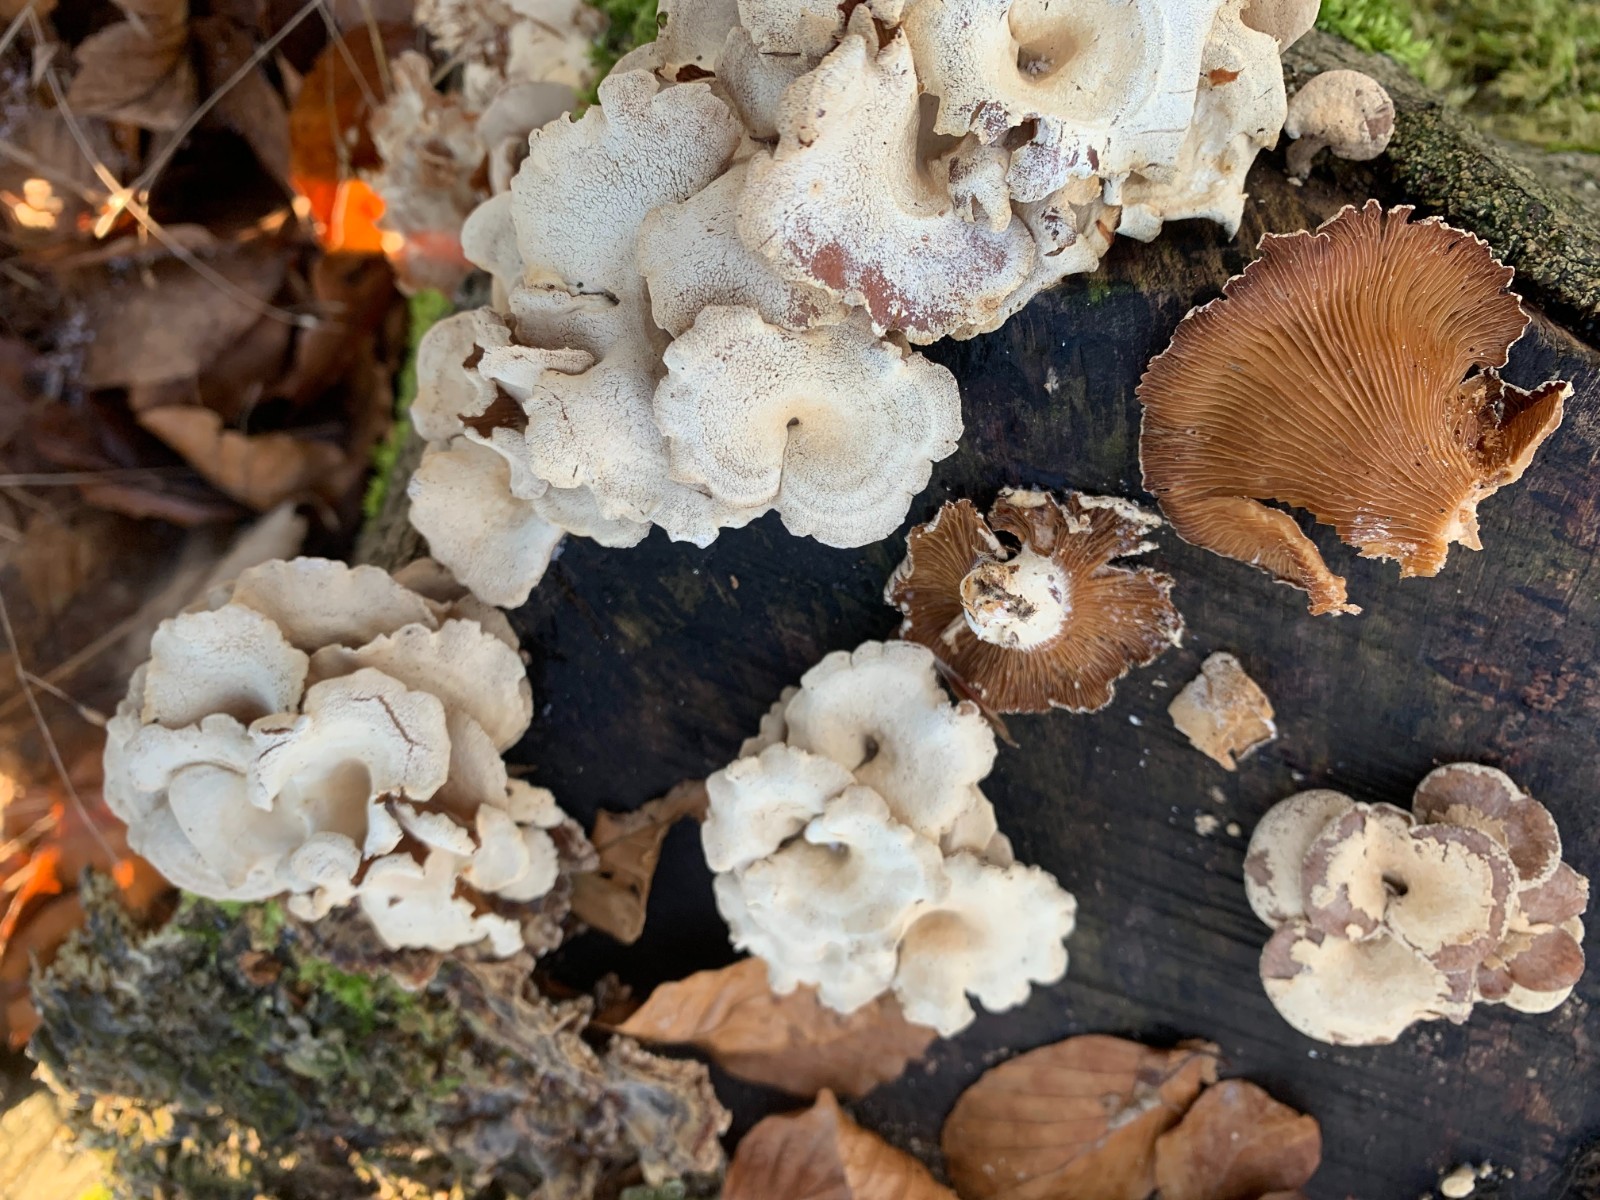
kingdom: Fungi
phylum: Basidiomycota
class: Agaricomycetes
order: Agaricales
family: Mycenaceae
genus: Panellus
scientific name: Panellus stipticus
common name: kliddet epaulethat
